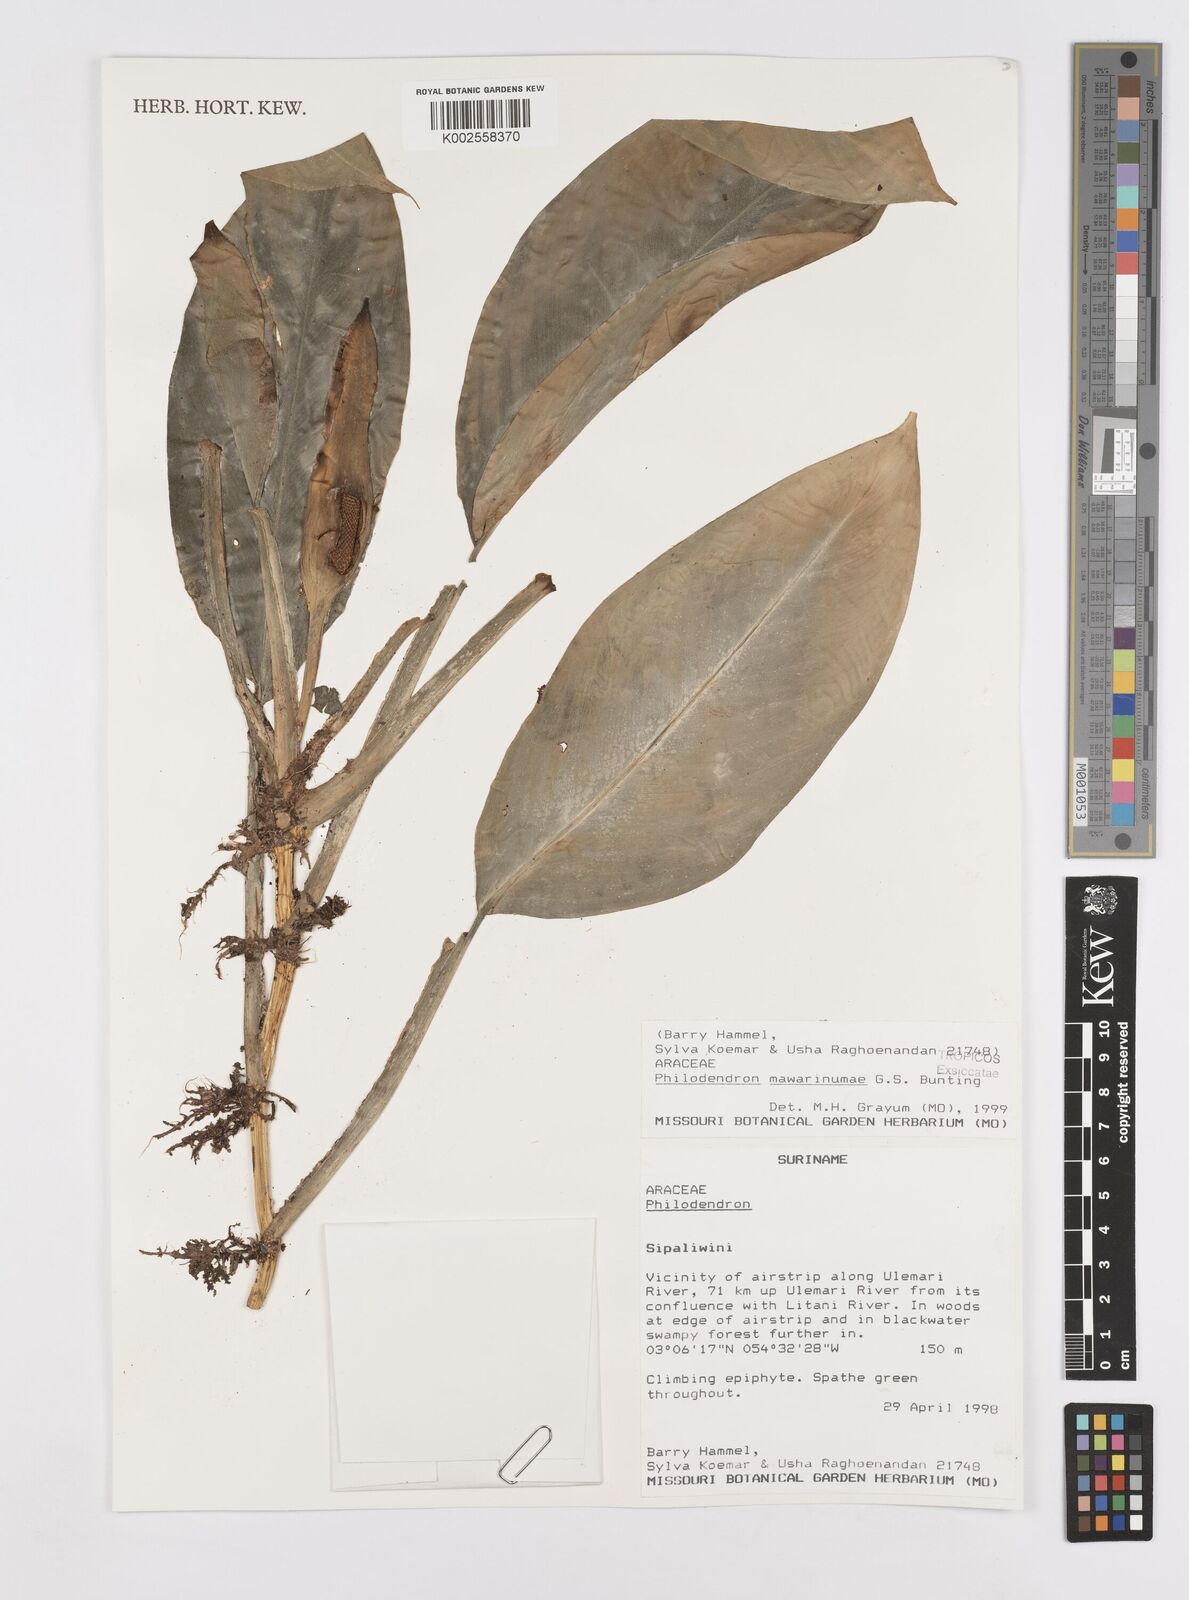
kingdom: Plantae
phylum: Tracheophyta
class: Liliopsida
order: Alismatales
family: Araceae
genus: Philodendron
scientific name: Philodendron mawarinumae
